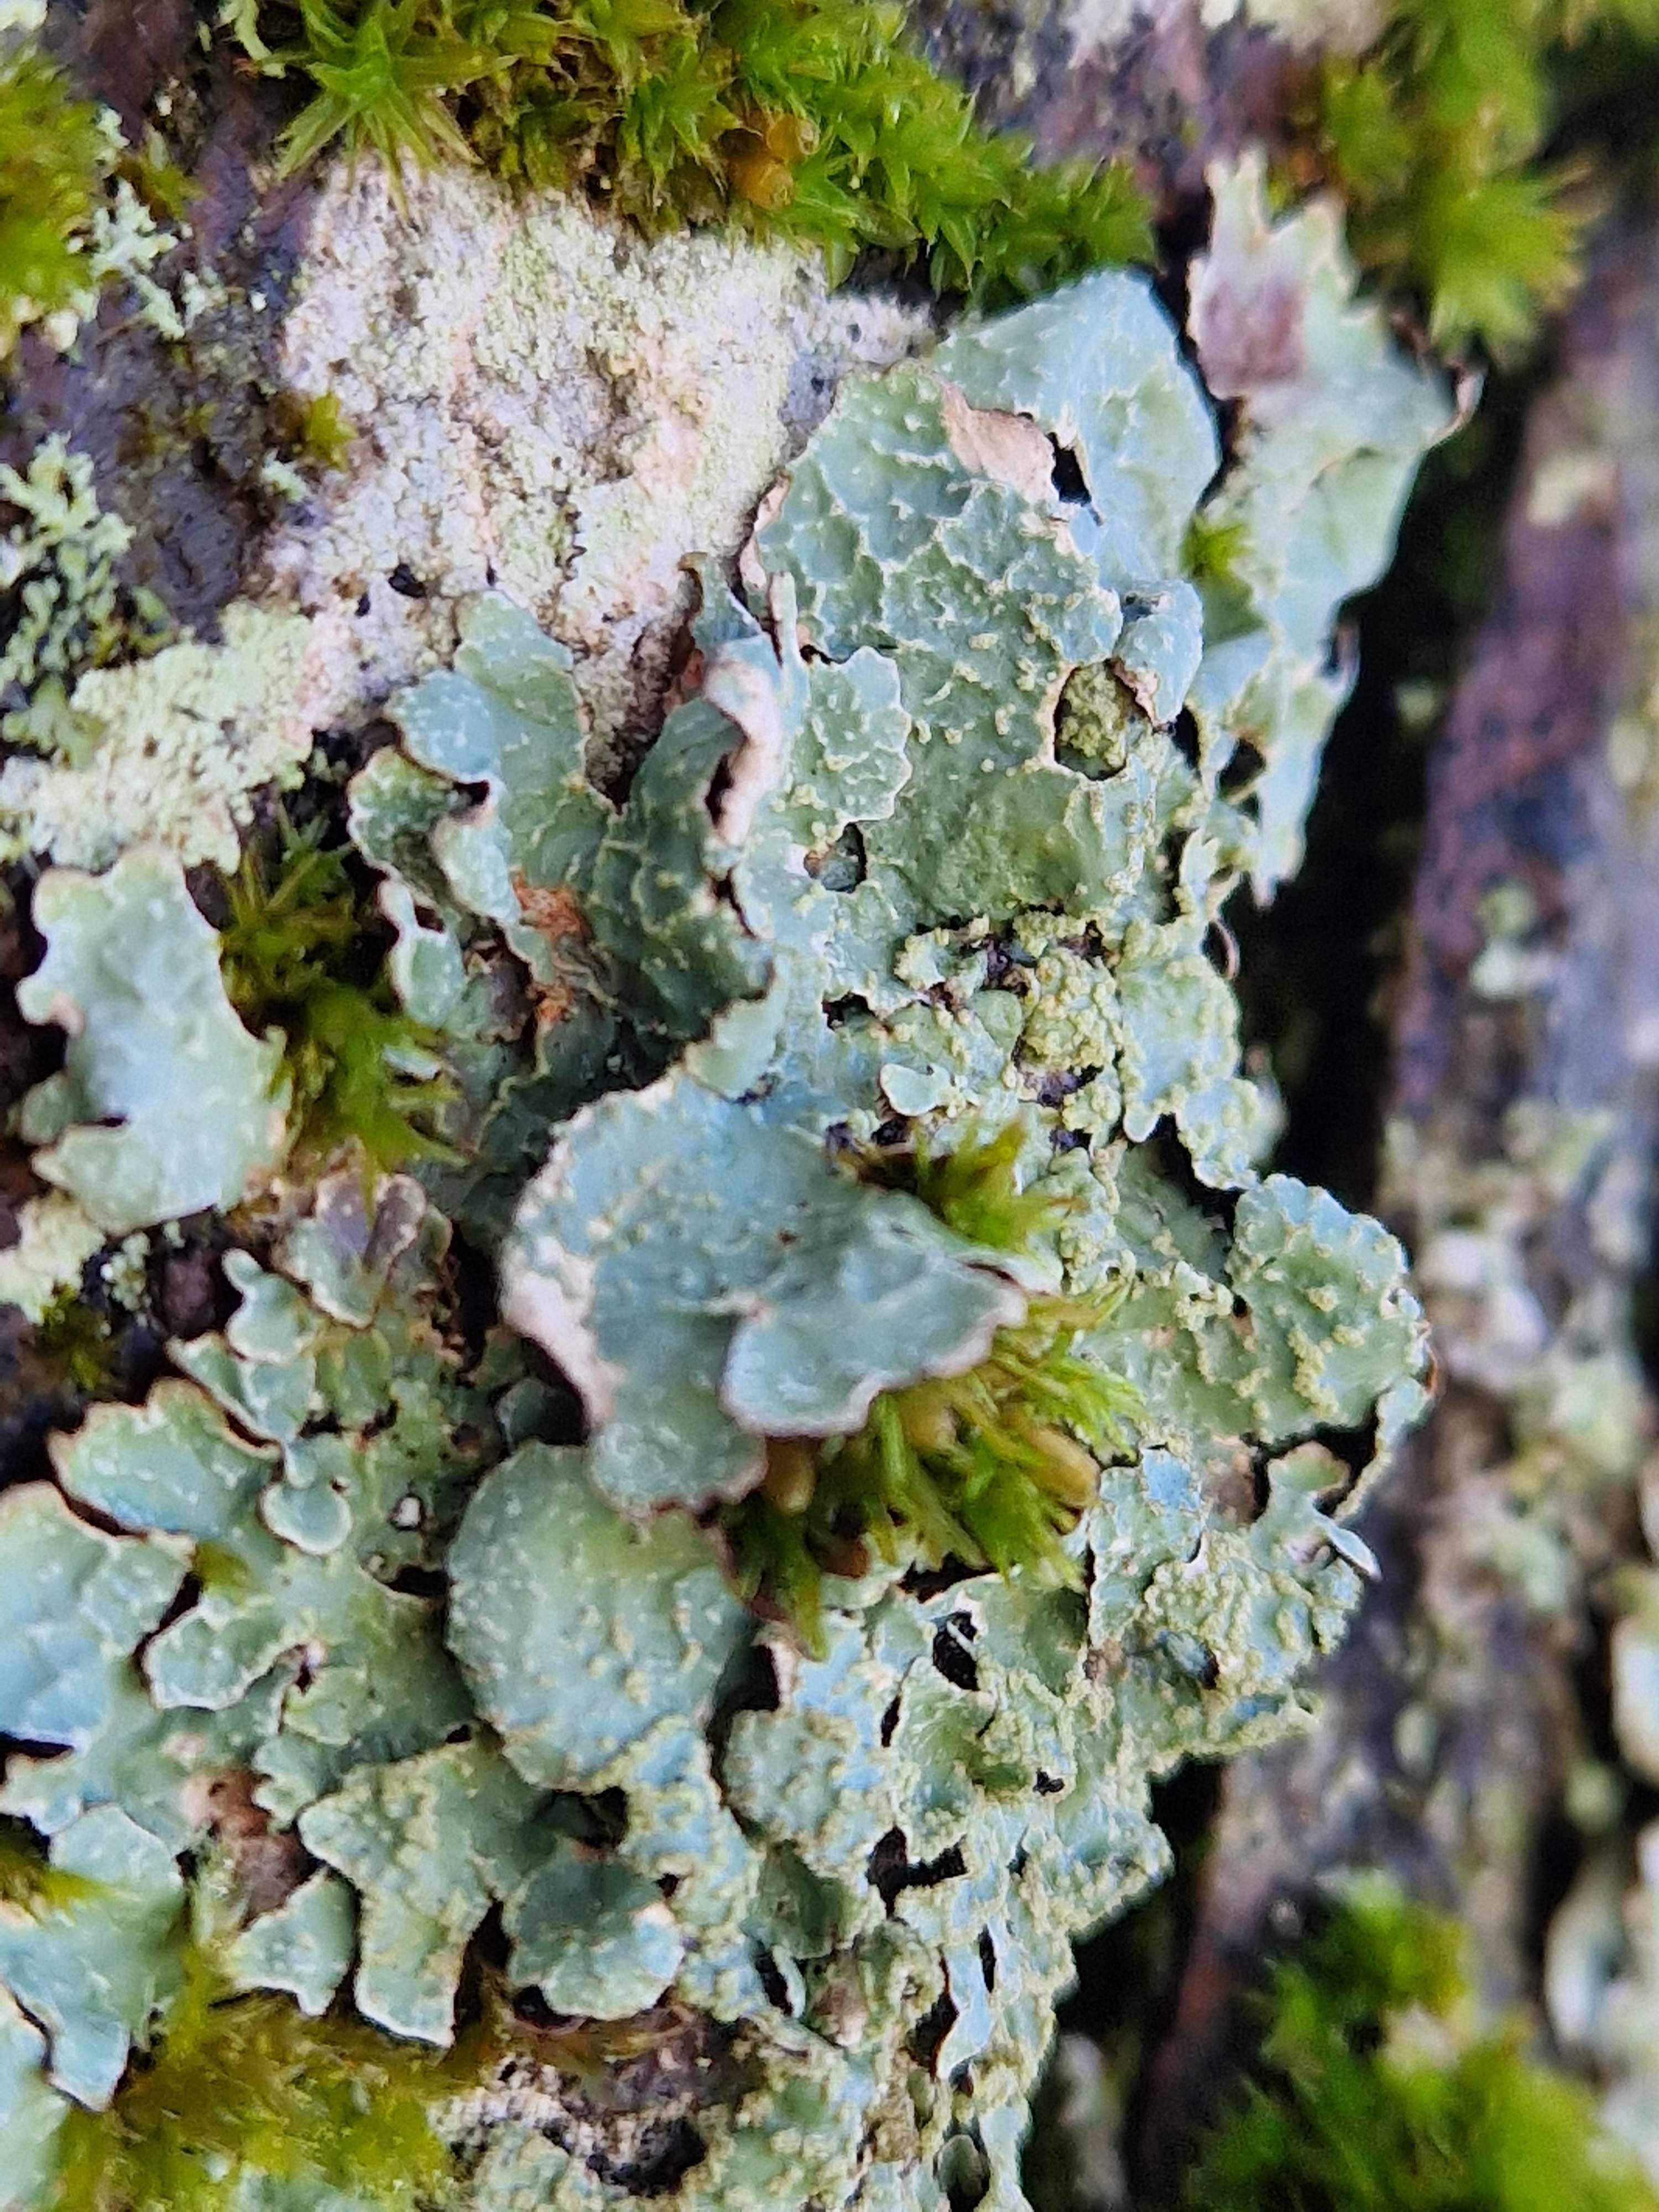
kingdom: Fungi
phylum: Ascomycota
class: Lecanoromycetes
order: Lecanorales
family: Parmeliaceae
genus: Parmelia
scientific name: Parmelia sulcata
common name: rynket skållav
